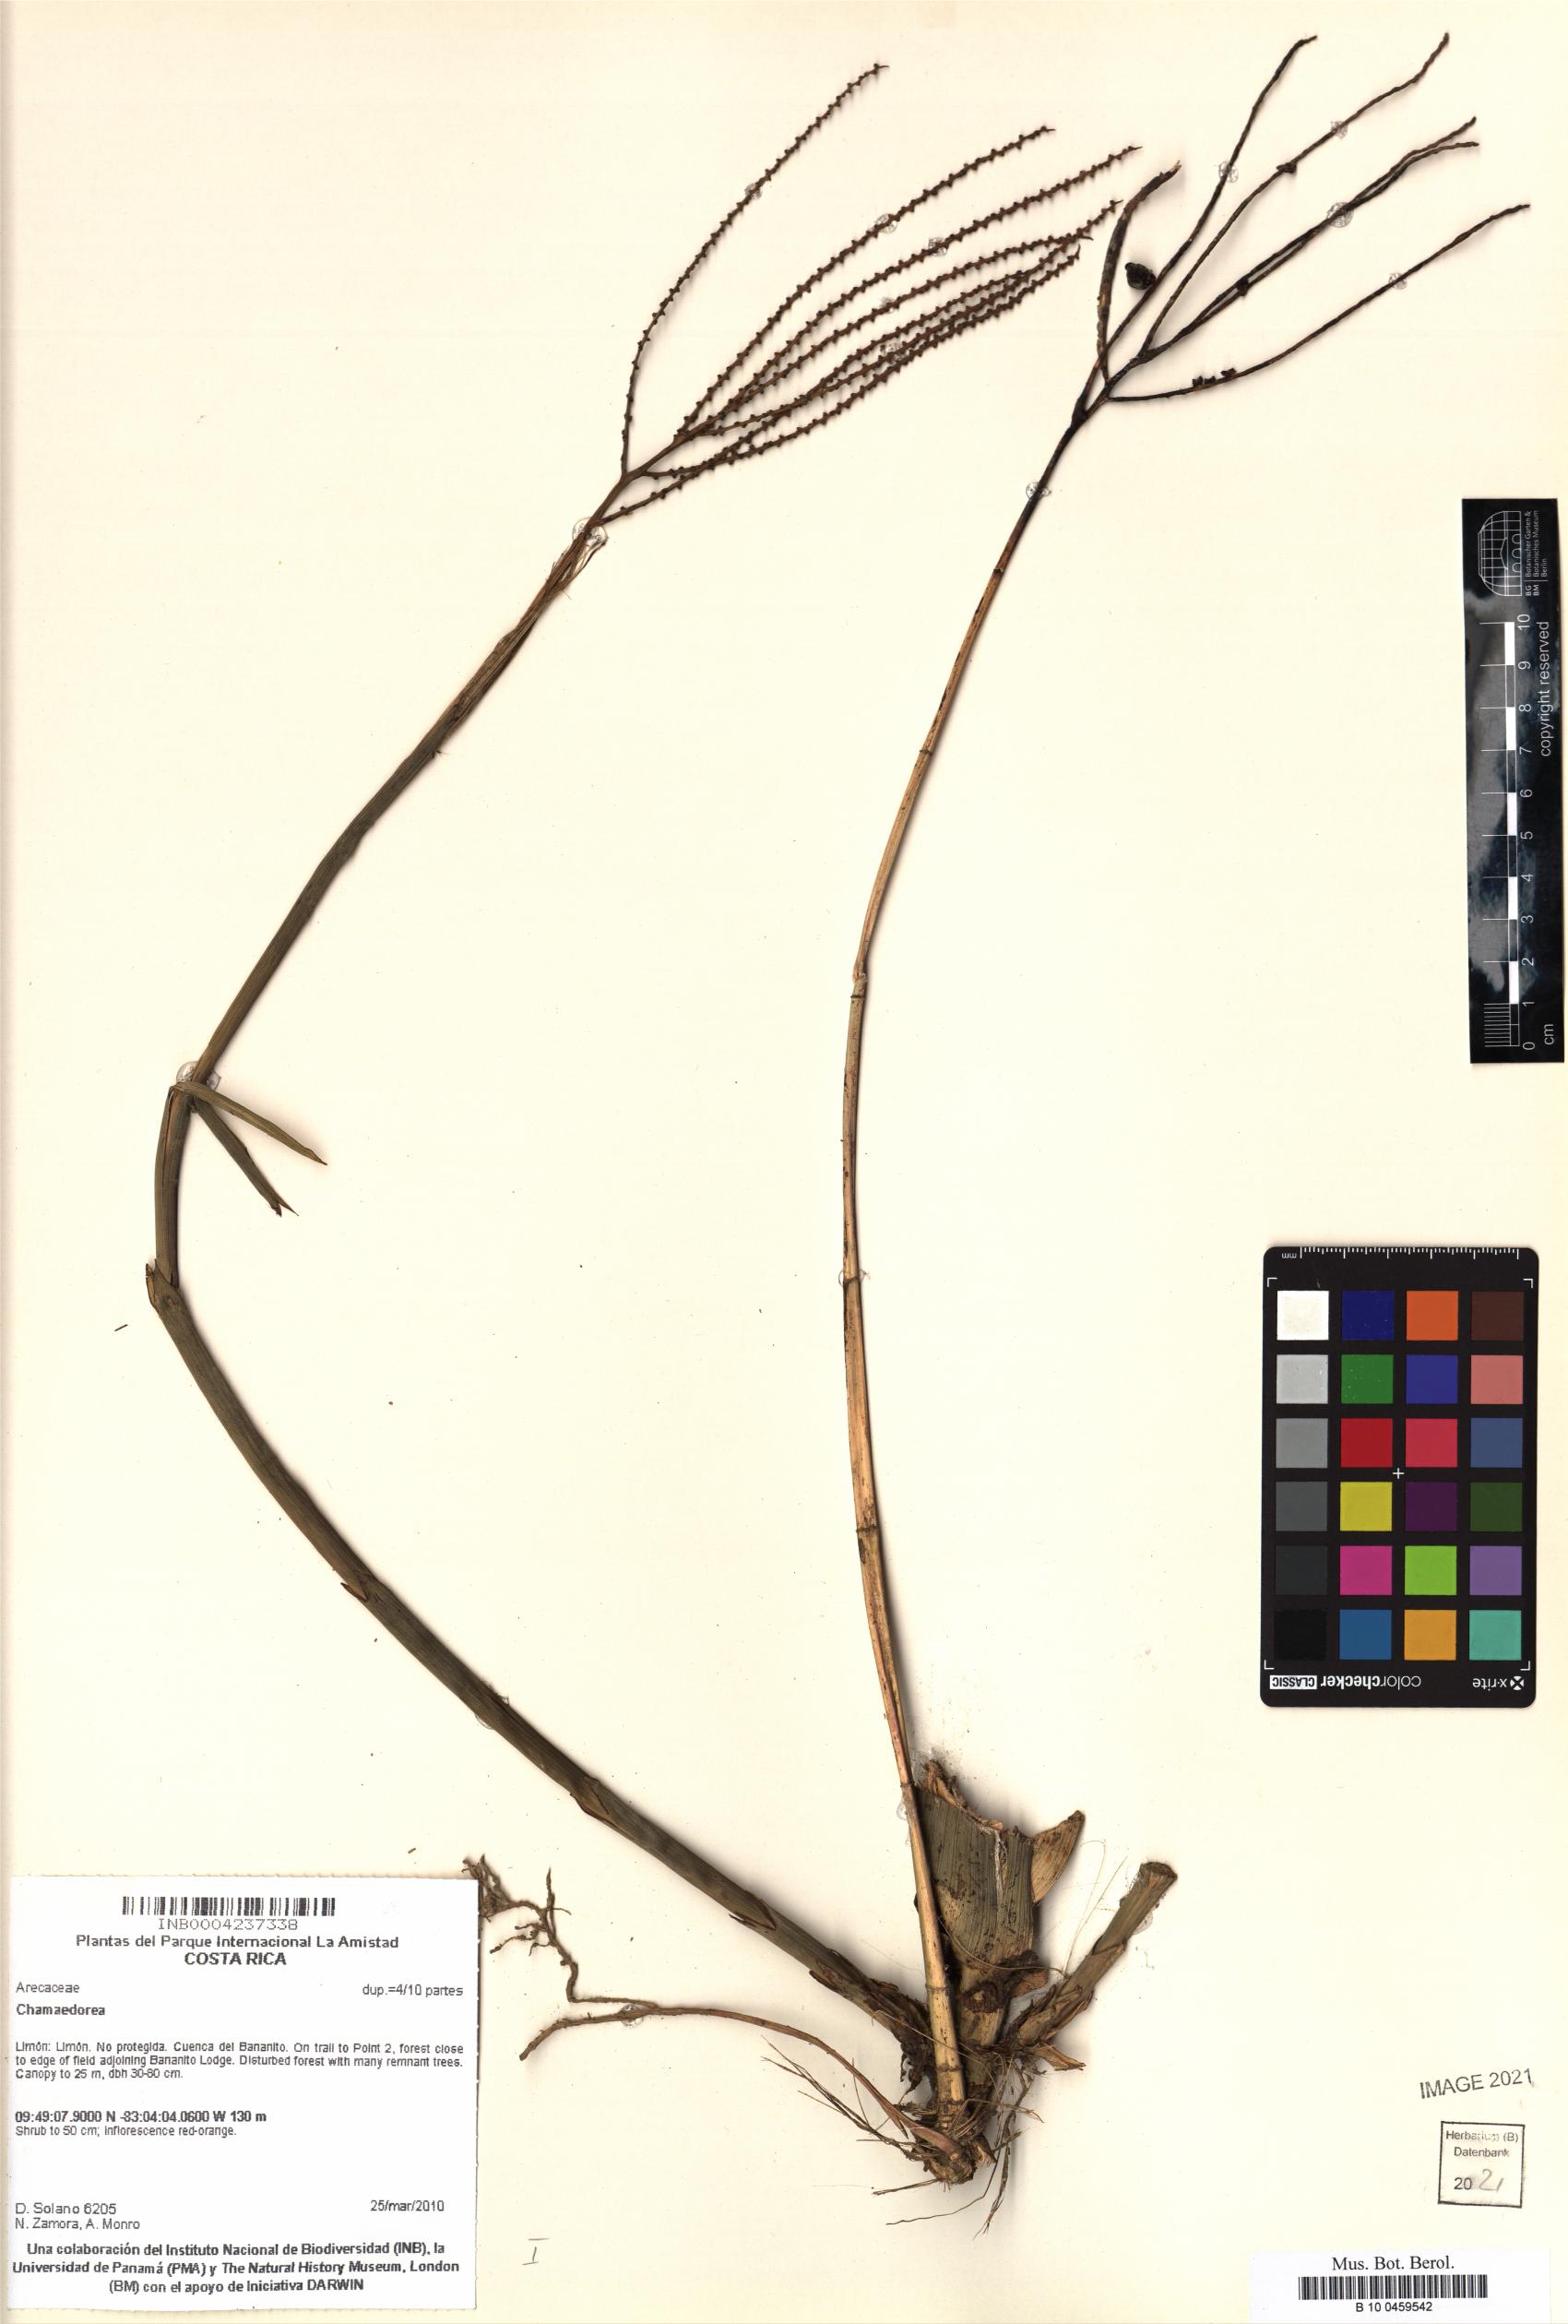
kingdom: Plantae
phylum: Tracheophyta
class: Liliopsida
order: Arecales
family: Arecaceae
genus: Chamaedorea
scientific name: Chamaedorea
